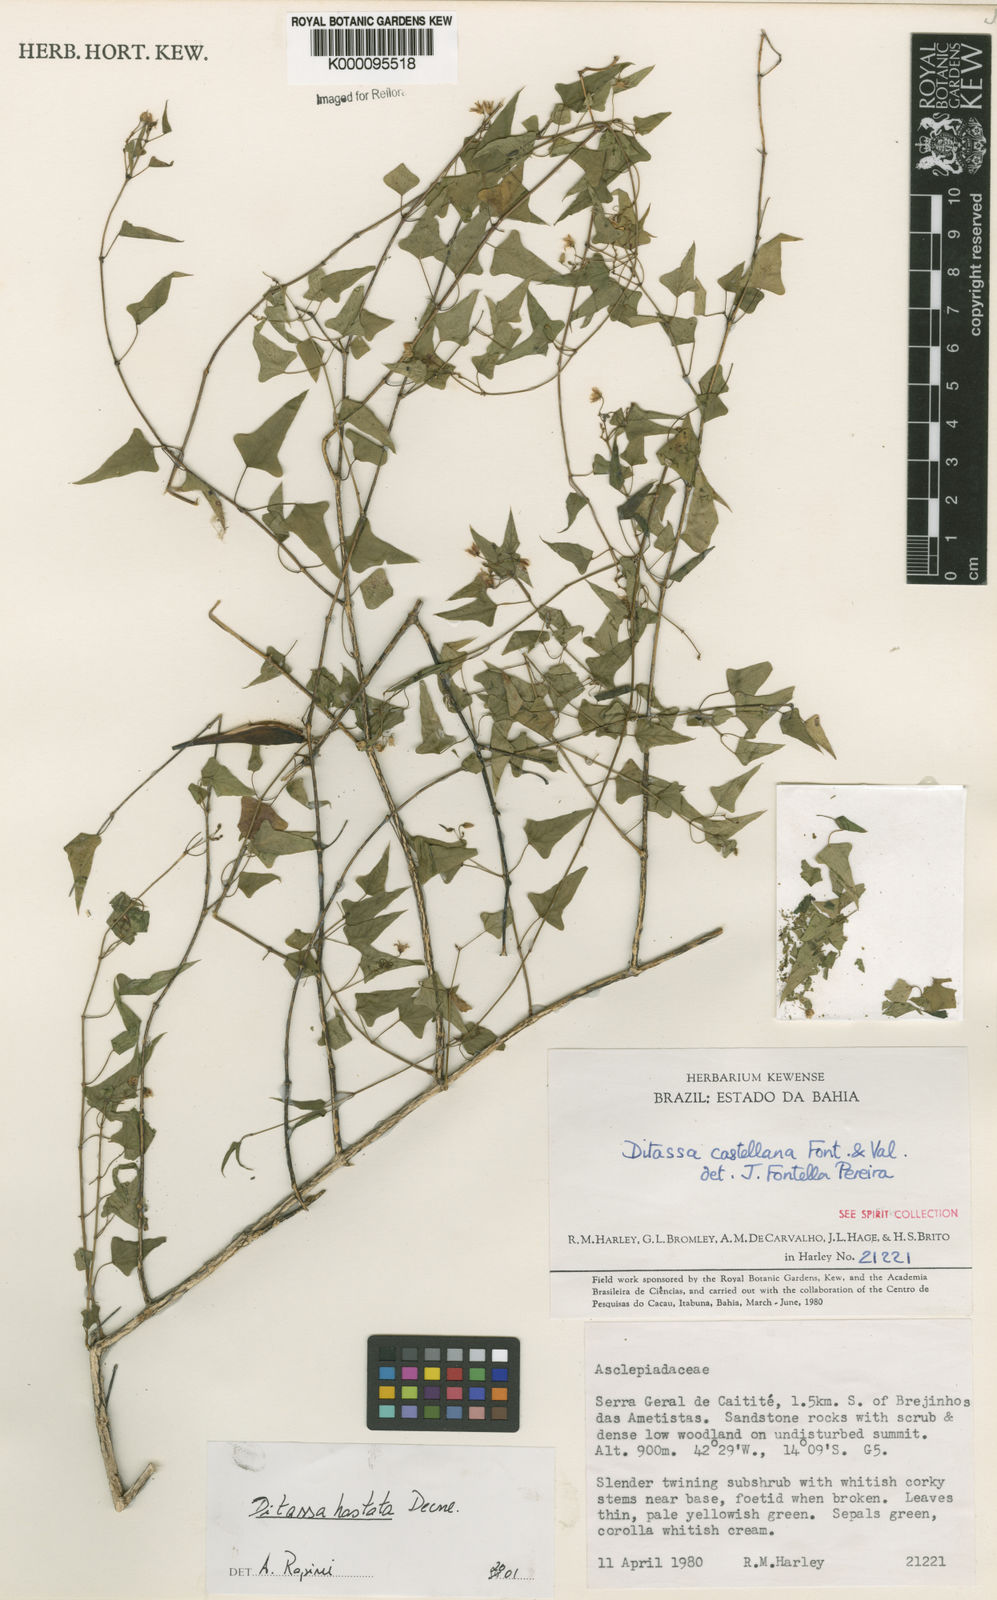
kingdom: Plantae
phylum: Tracheophyta
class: Magnoliopsida
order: Gentianales
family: Apocynaceae
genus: Ditassa
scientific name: Ditassa hastata
